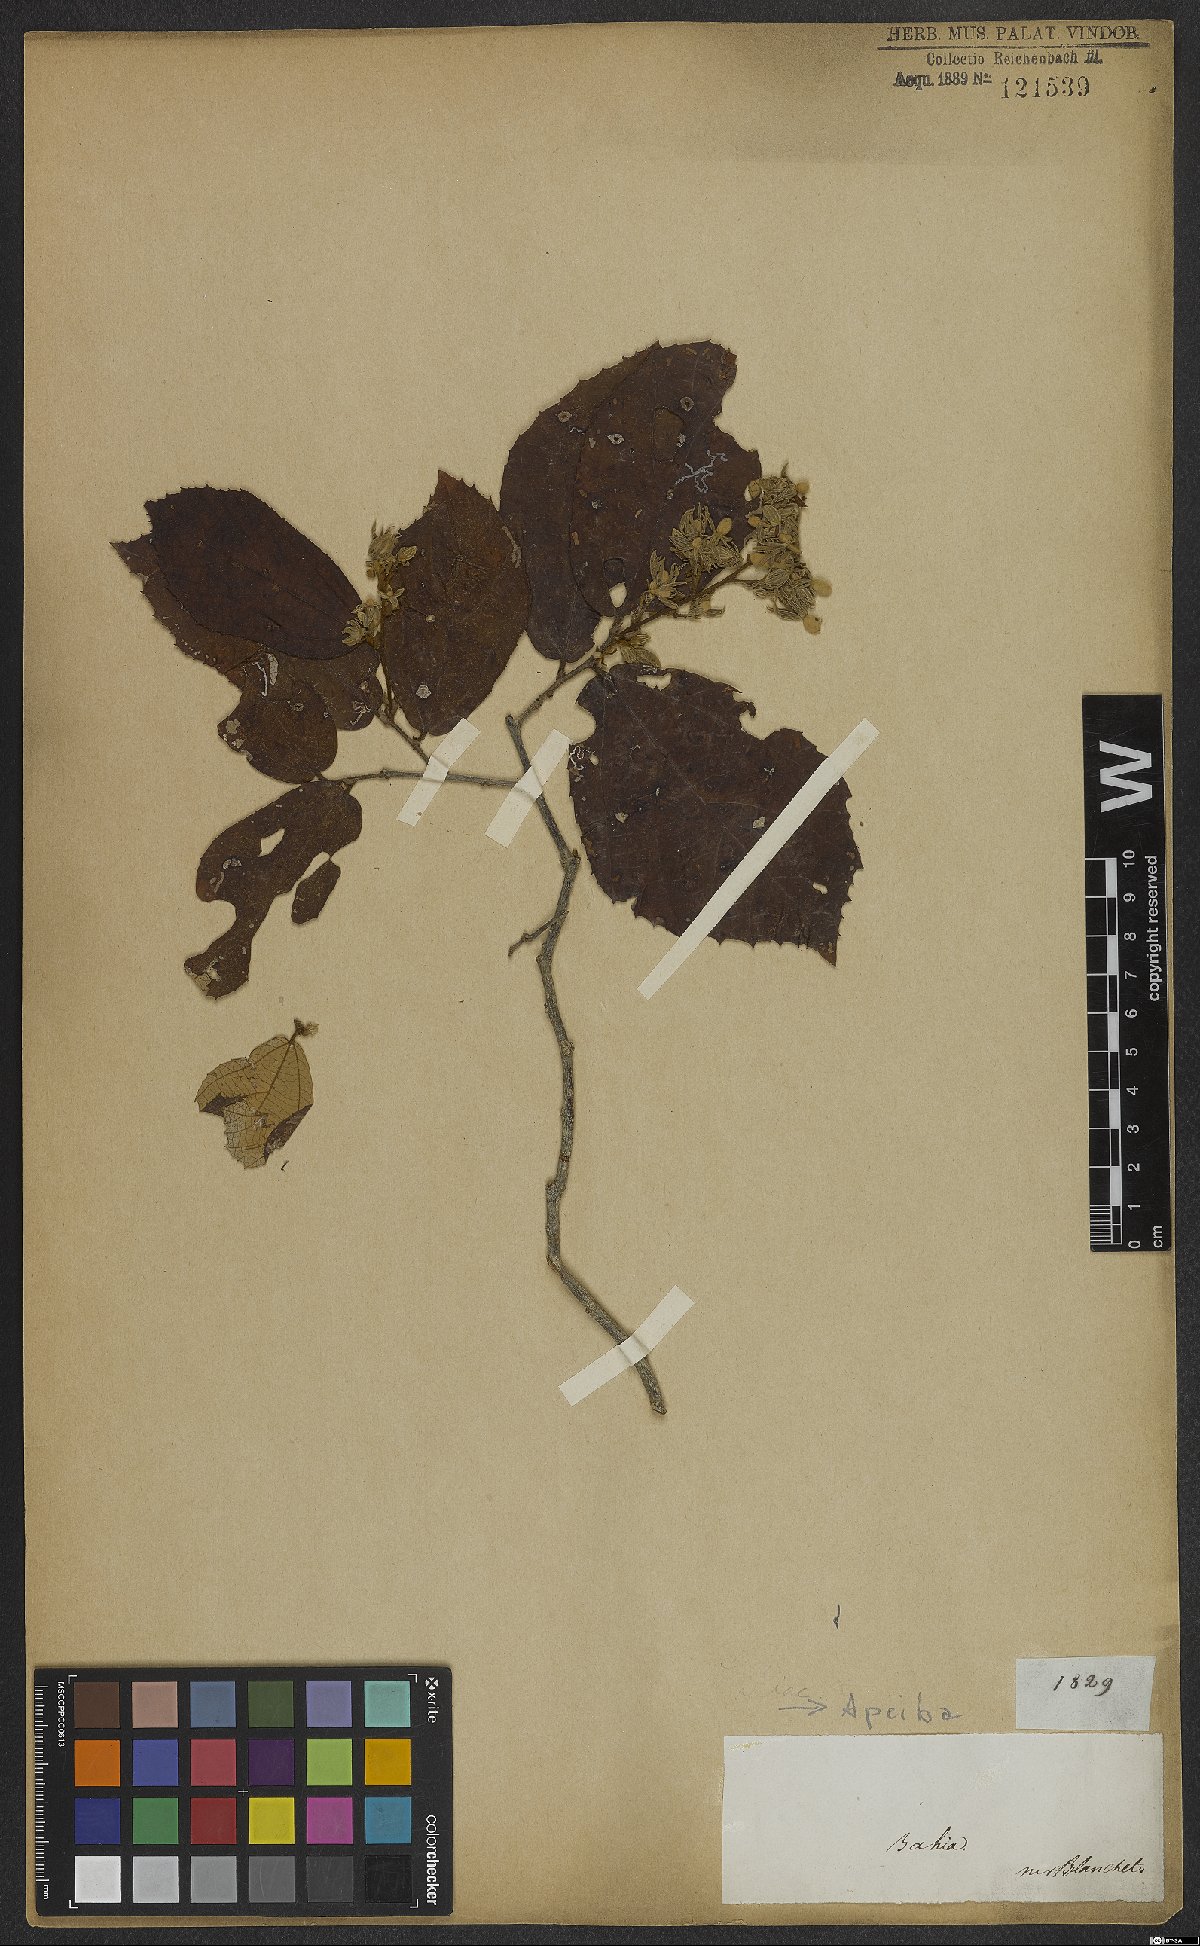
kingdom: Plantae
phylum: Tracheophyta
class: Magnoliopsida
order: Malvales
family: Malvaceae
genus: Apeiba
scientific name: Apeiba
